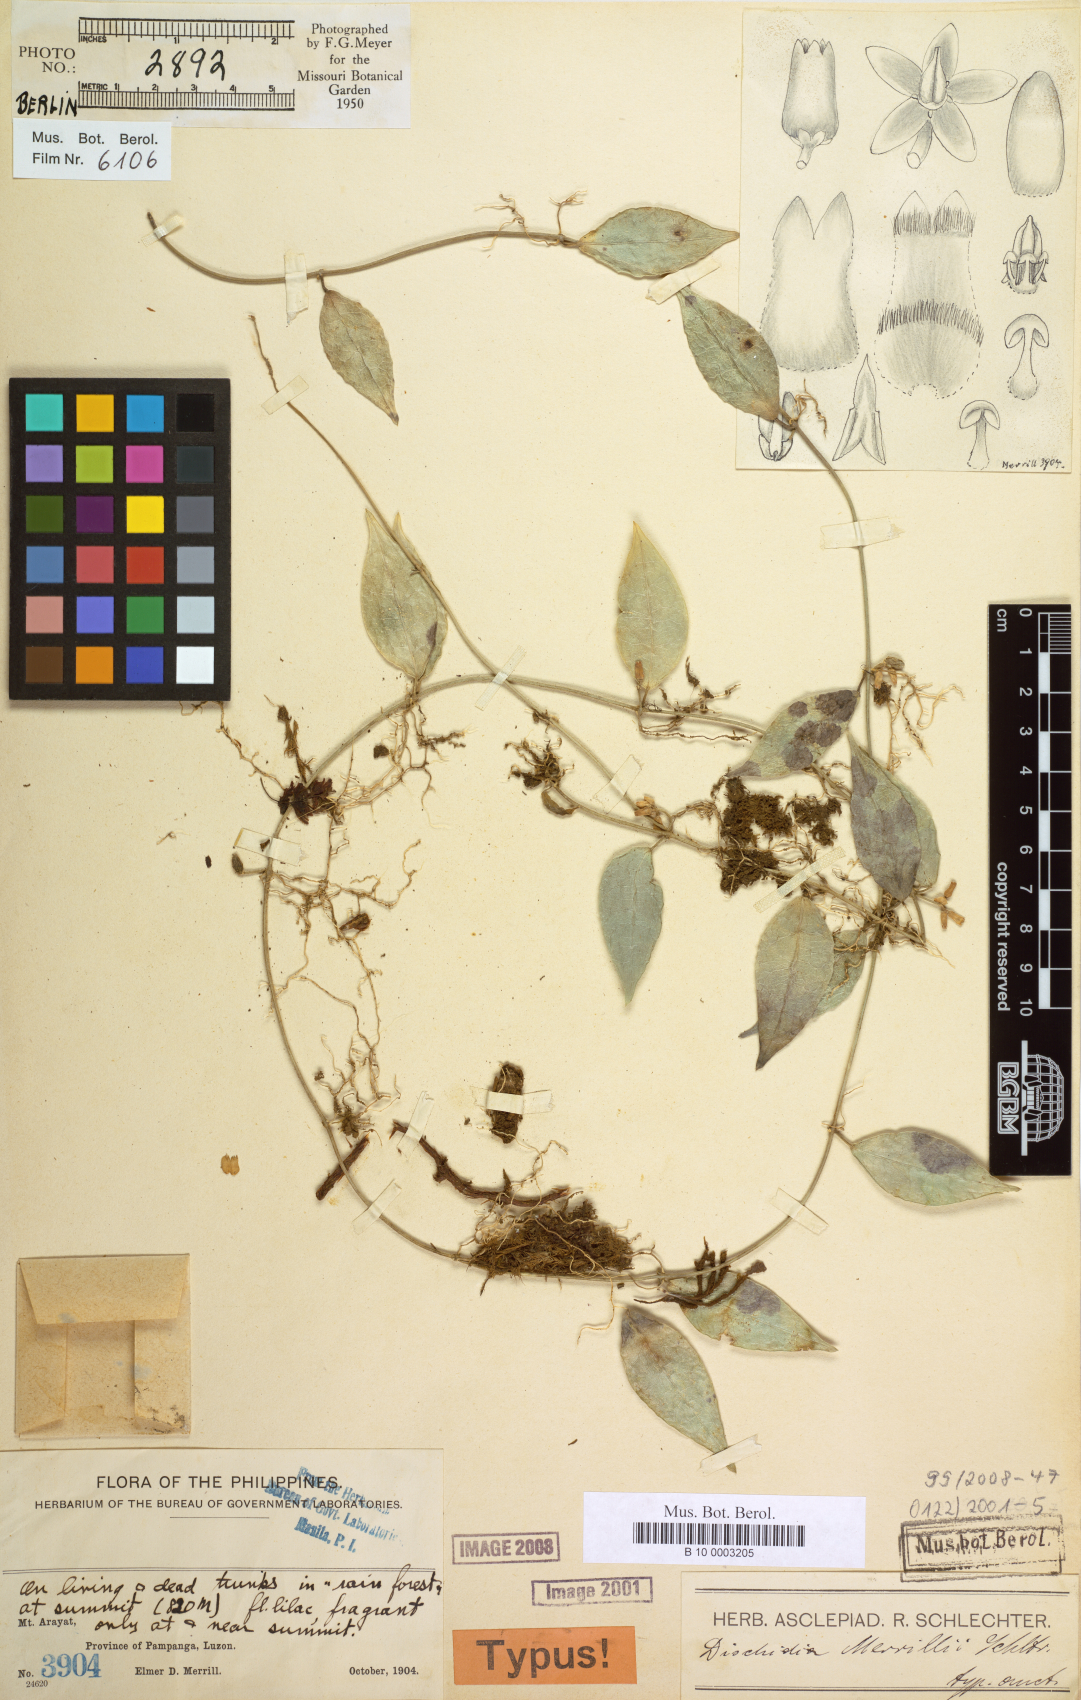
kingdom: Plantae
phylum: Tracheophyta
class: Magnoliopsida
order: Gentianales
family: Apocynaceae
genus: Dischidia
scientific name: Dischidia merrillii
